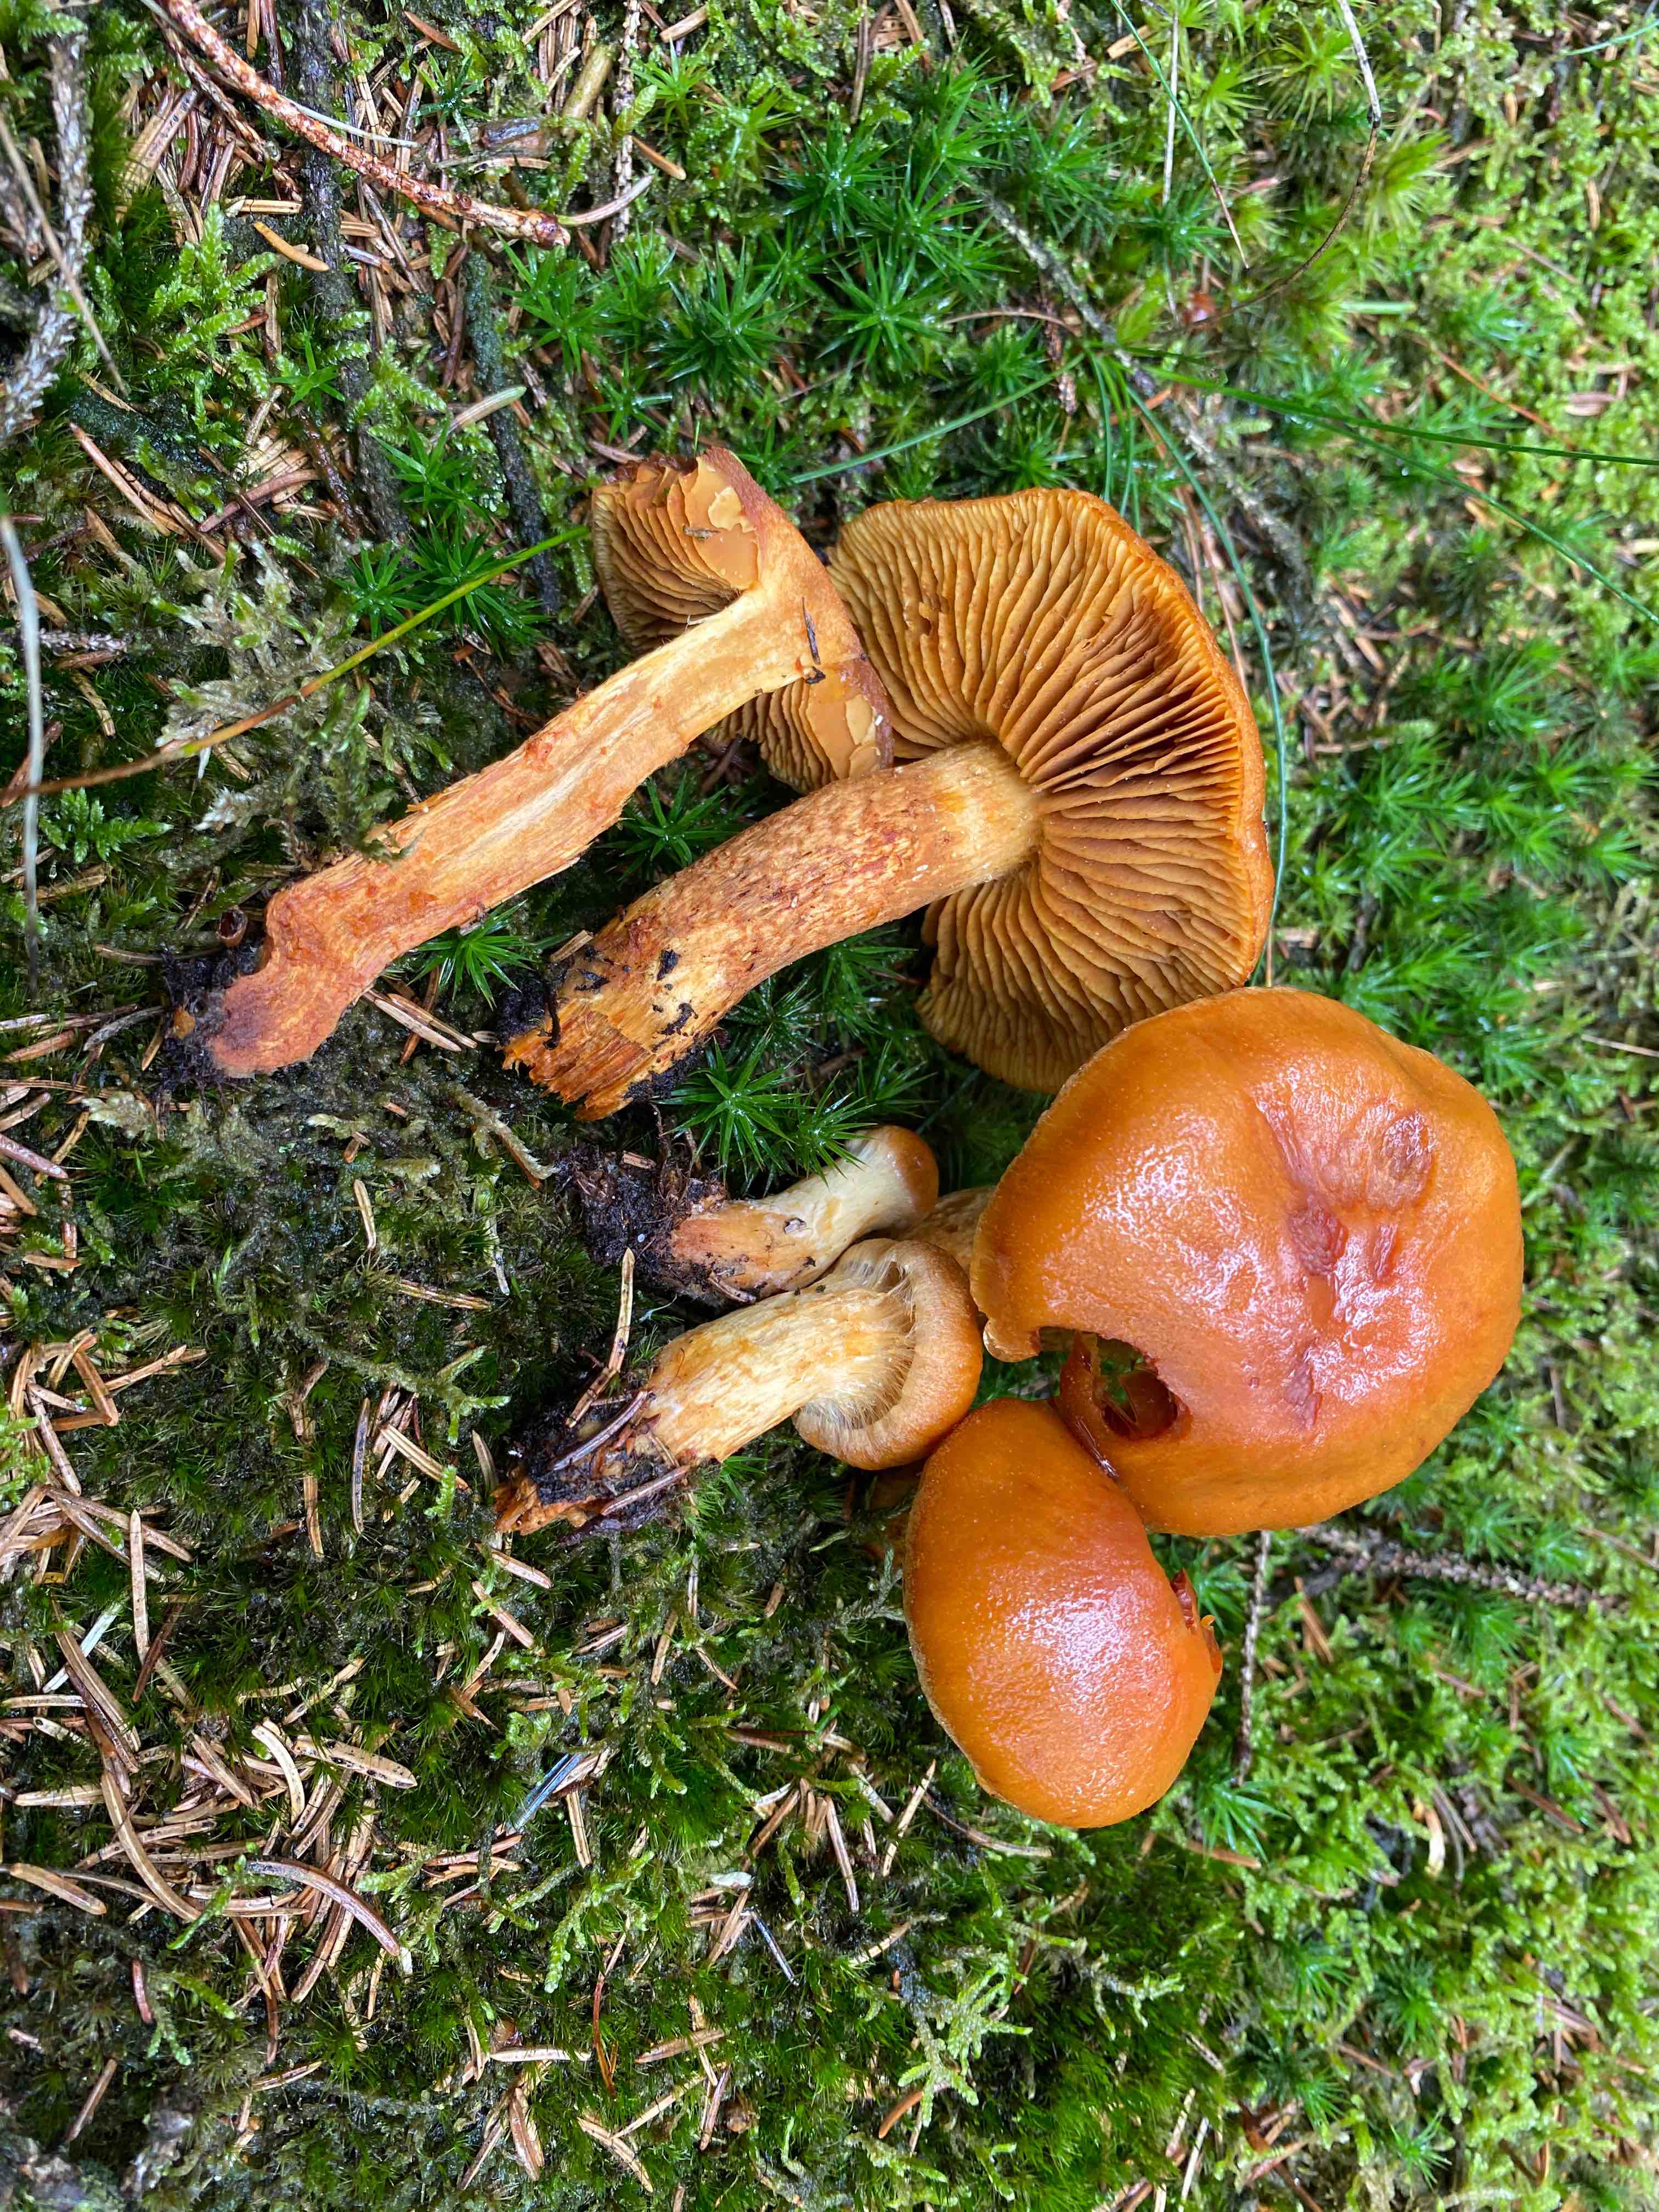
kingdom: Fungi
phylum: Basidiomycota
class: Agaricomycetes
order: Agaricales
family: Cortinariaceae
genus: Aureonarius
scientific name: Aureonarius limonius
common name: orangegul slørhat
